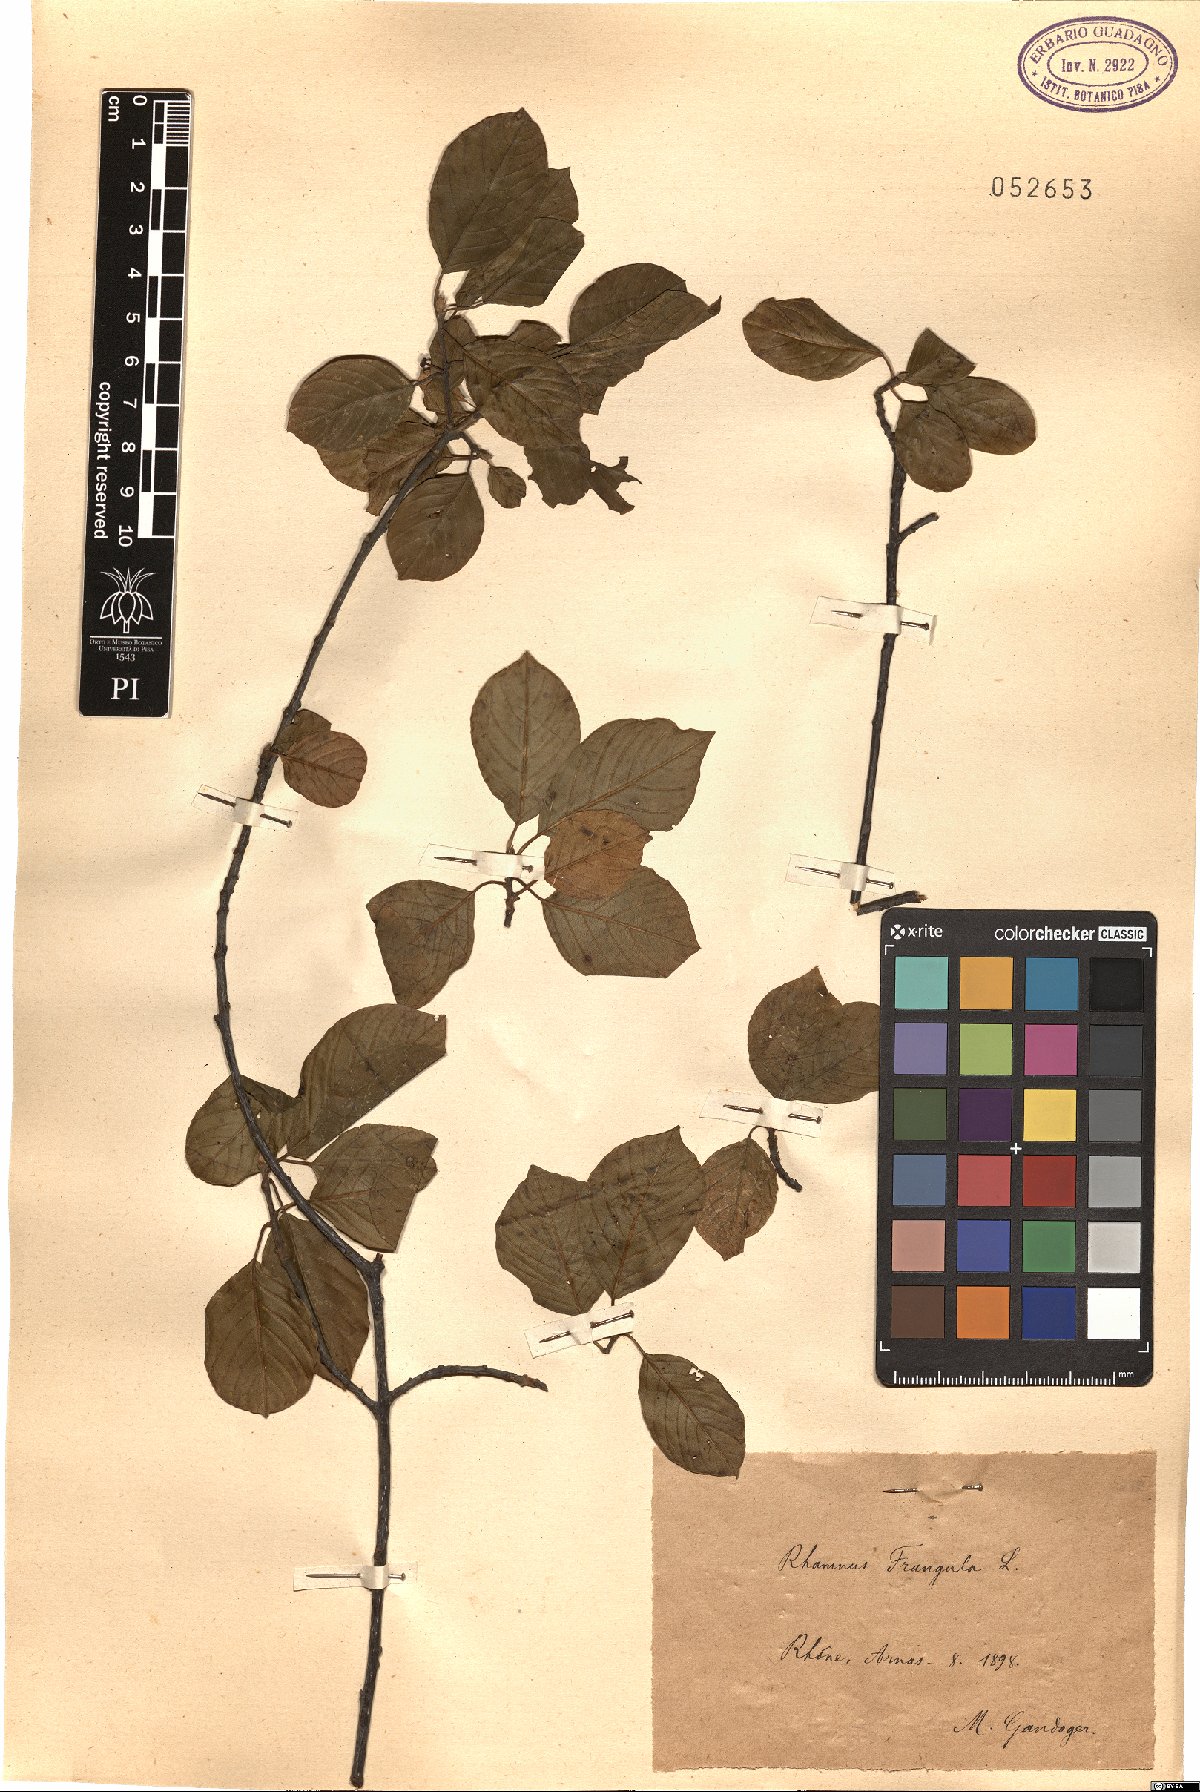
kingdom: Plantae
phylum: Tracheophyta
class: Magnoliopsida
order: Rosales
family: Rhamnaceae
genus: Frangula
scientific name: Frangula alnus
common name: Alder buckthorn
